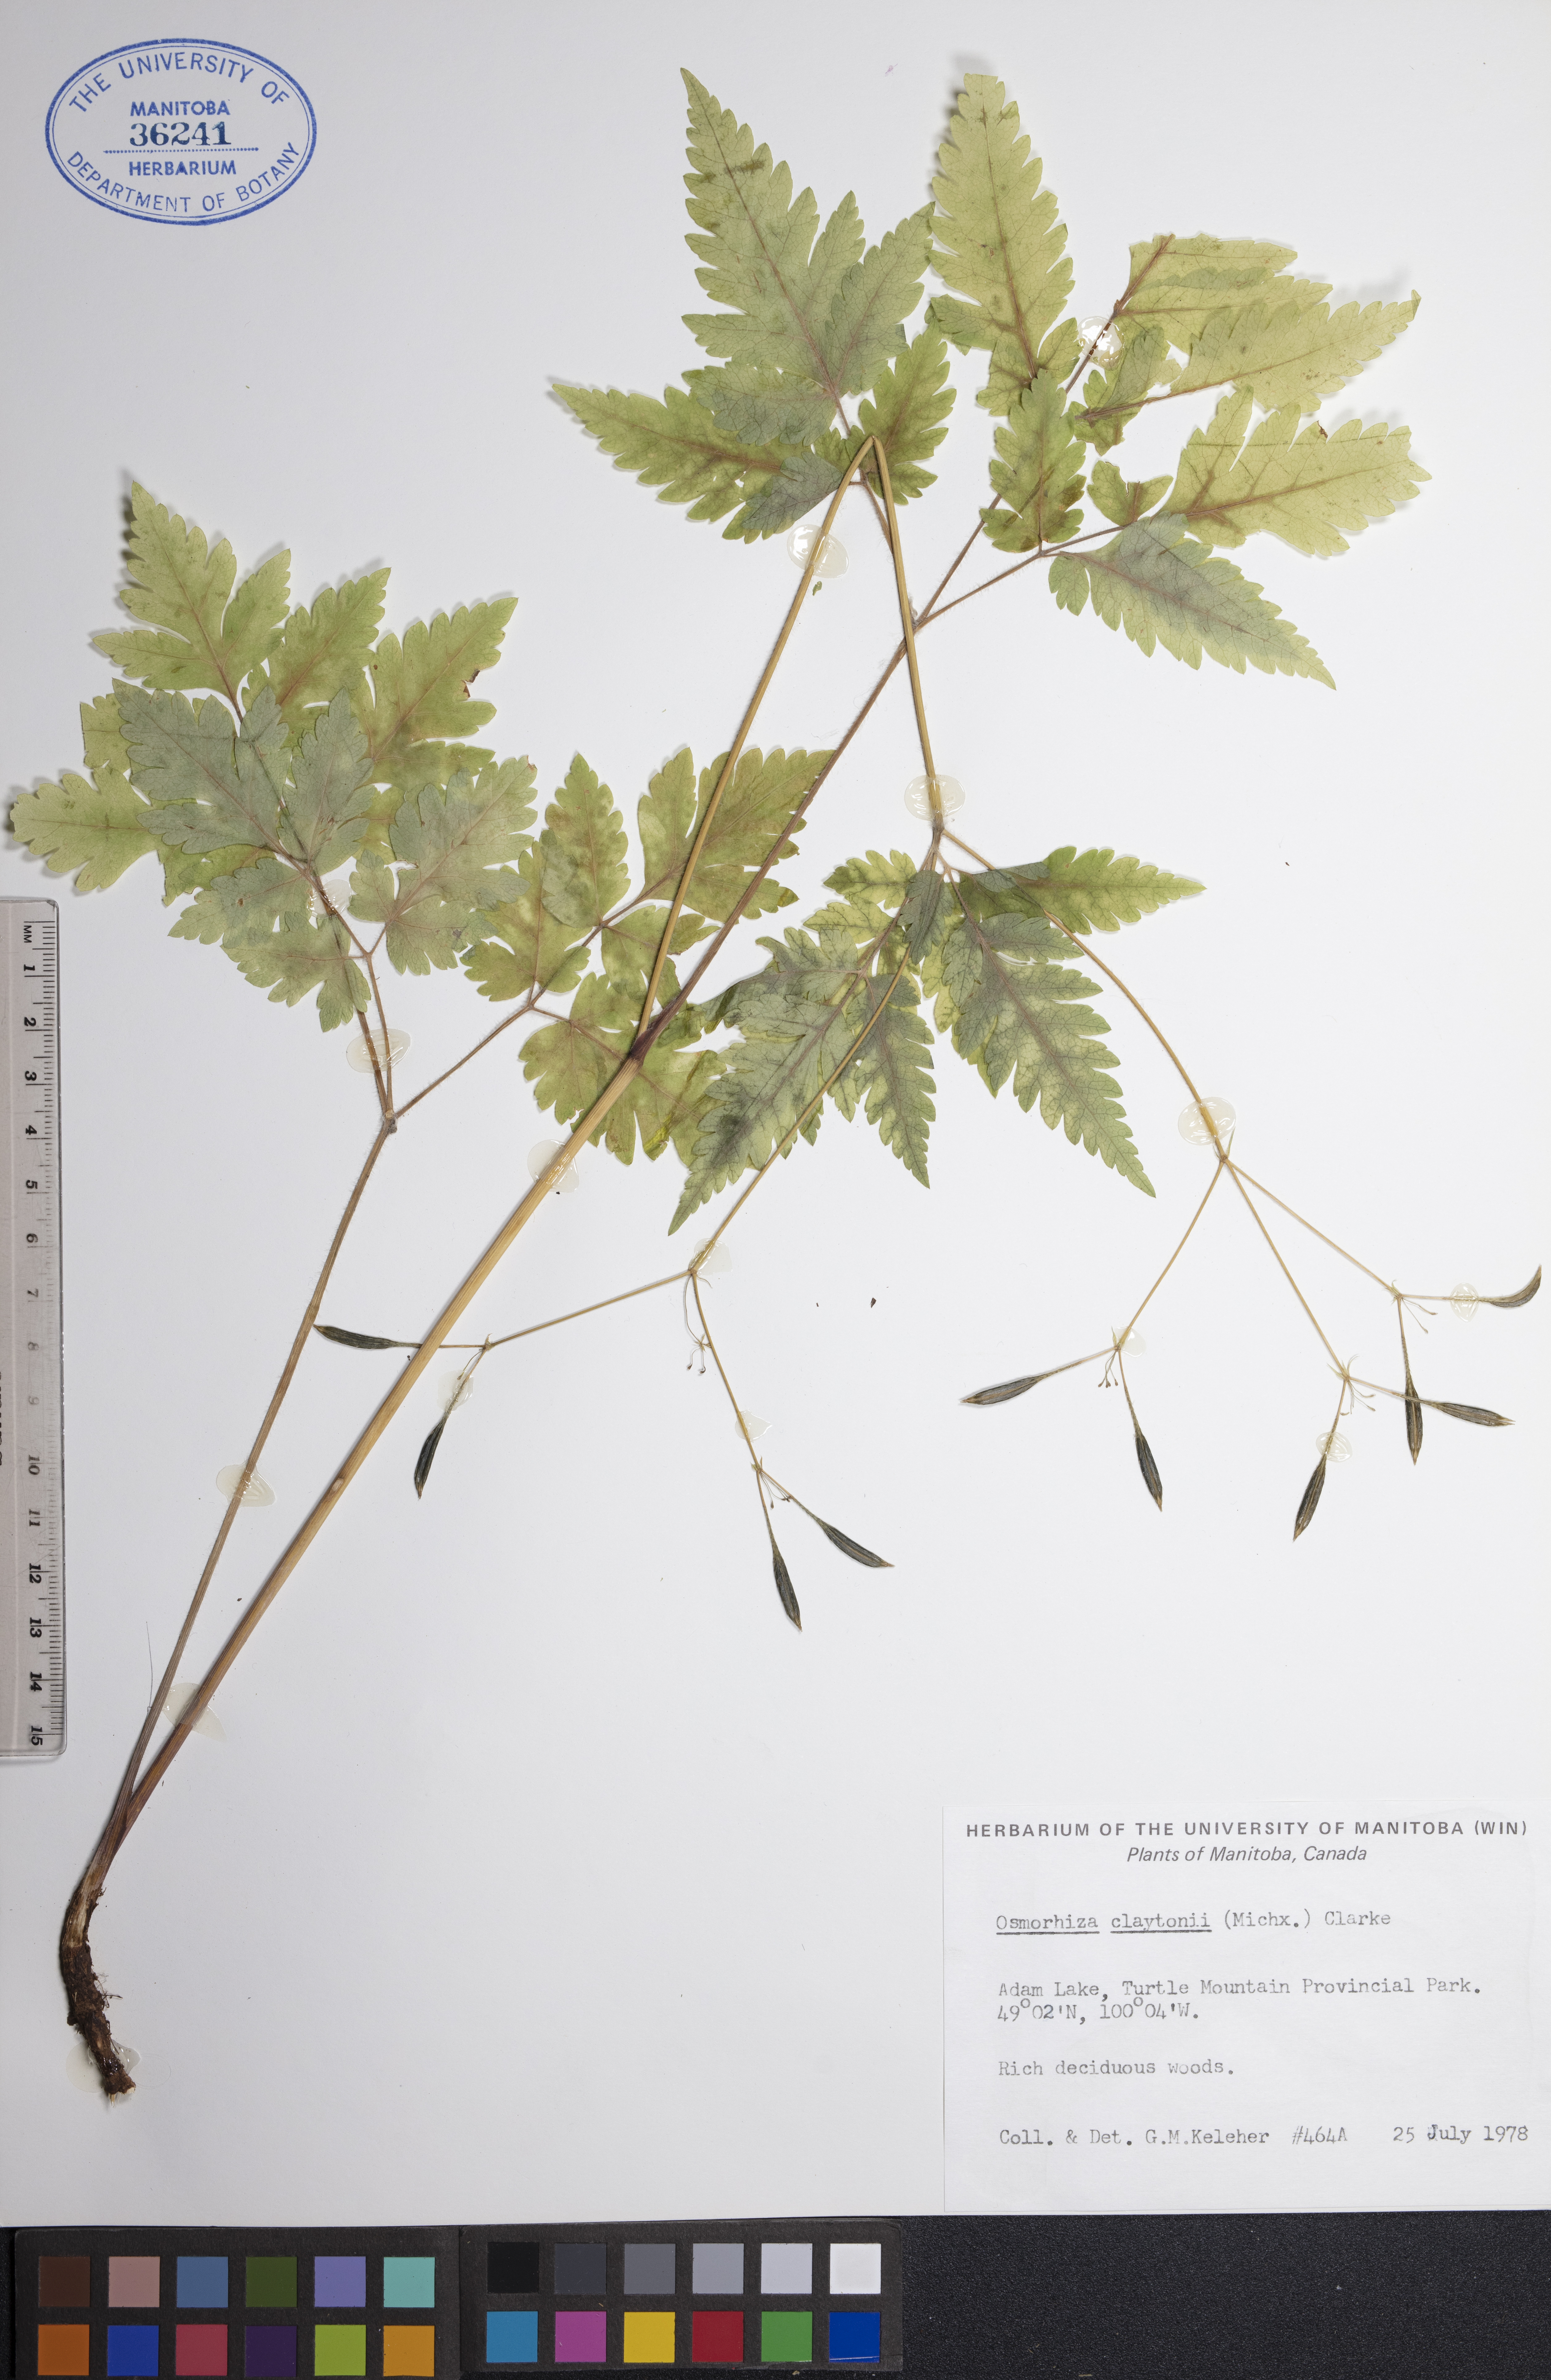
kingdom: Plantae
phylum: Tracheophyta
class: Magnoliopsida
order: Apiales
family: Apiaceae
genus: Osmorhiza
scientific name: Osmorhiza claytonii
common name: Hairy sweet cicely
